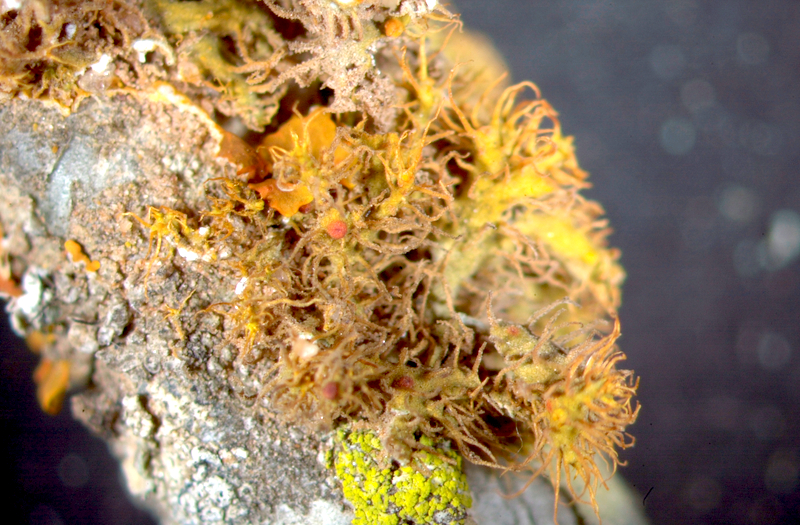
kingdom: Fungi
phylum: Ascomycota
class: Lecanoromycetes
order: Teloschistales
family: Teloschistaceae
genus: Niorma
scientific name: Niorma chrysophthalma
